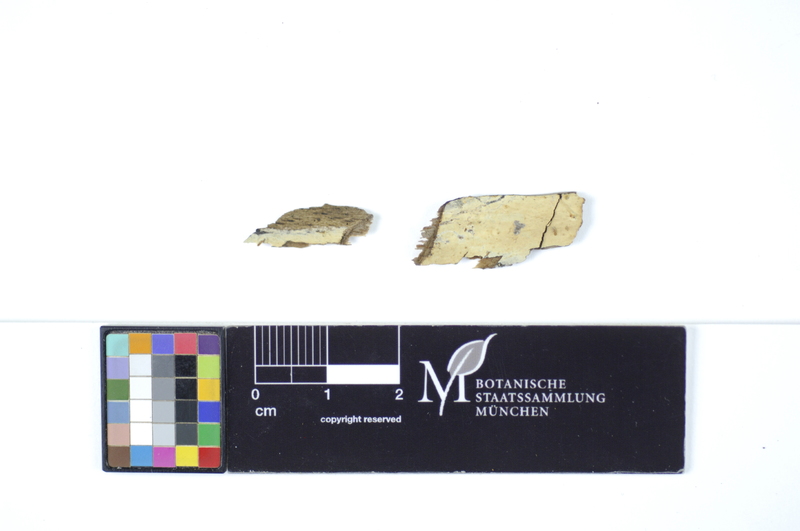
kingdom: Plantae
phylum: Tracheophyta
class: Magnoliopsida
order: Fagales
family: Fagaceae
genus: Fagus
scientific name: Fagus sylvatica
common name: Beech
